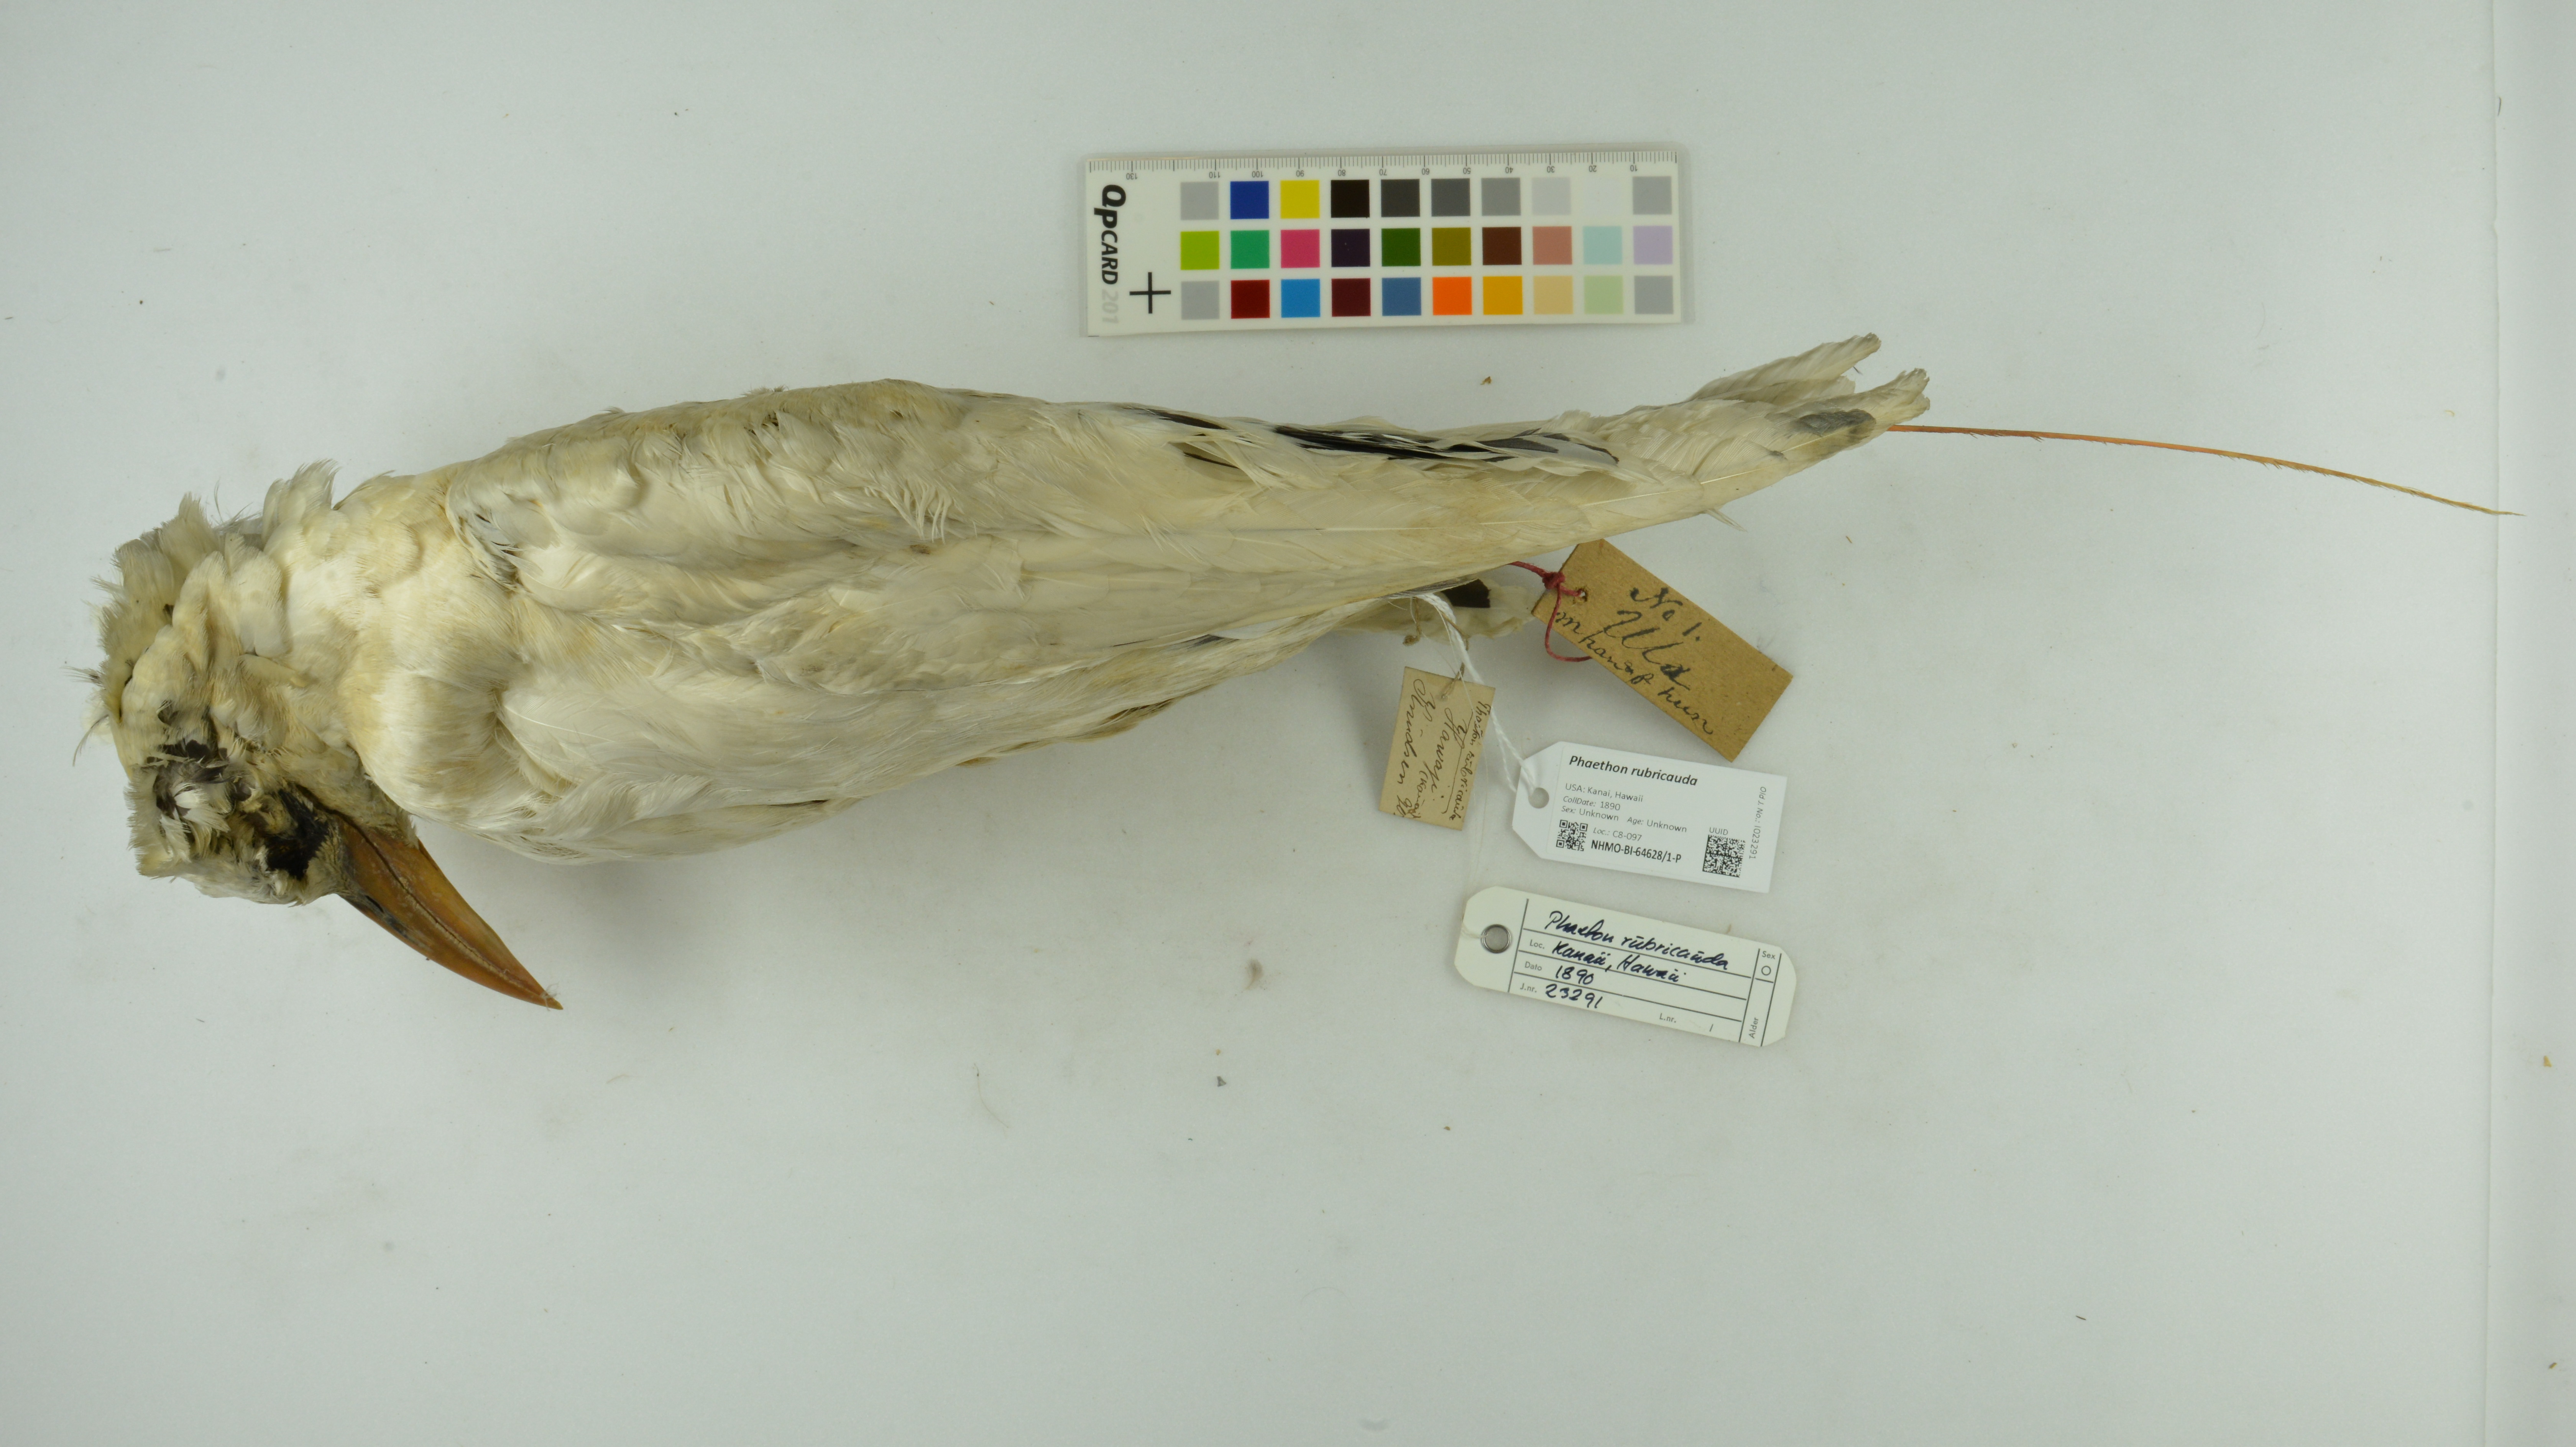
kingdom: Animalia
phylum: Chordata
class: Aves
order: Phaethontiformes
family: Phaethontidae
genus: Phaethon
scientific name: Phaethon rubricauda
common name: Red-tailed tropicbird
